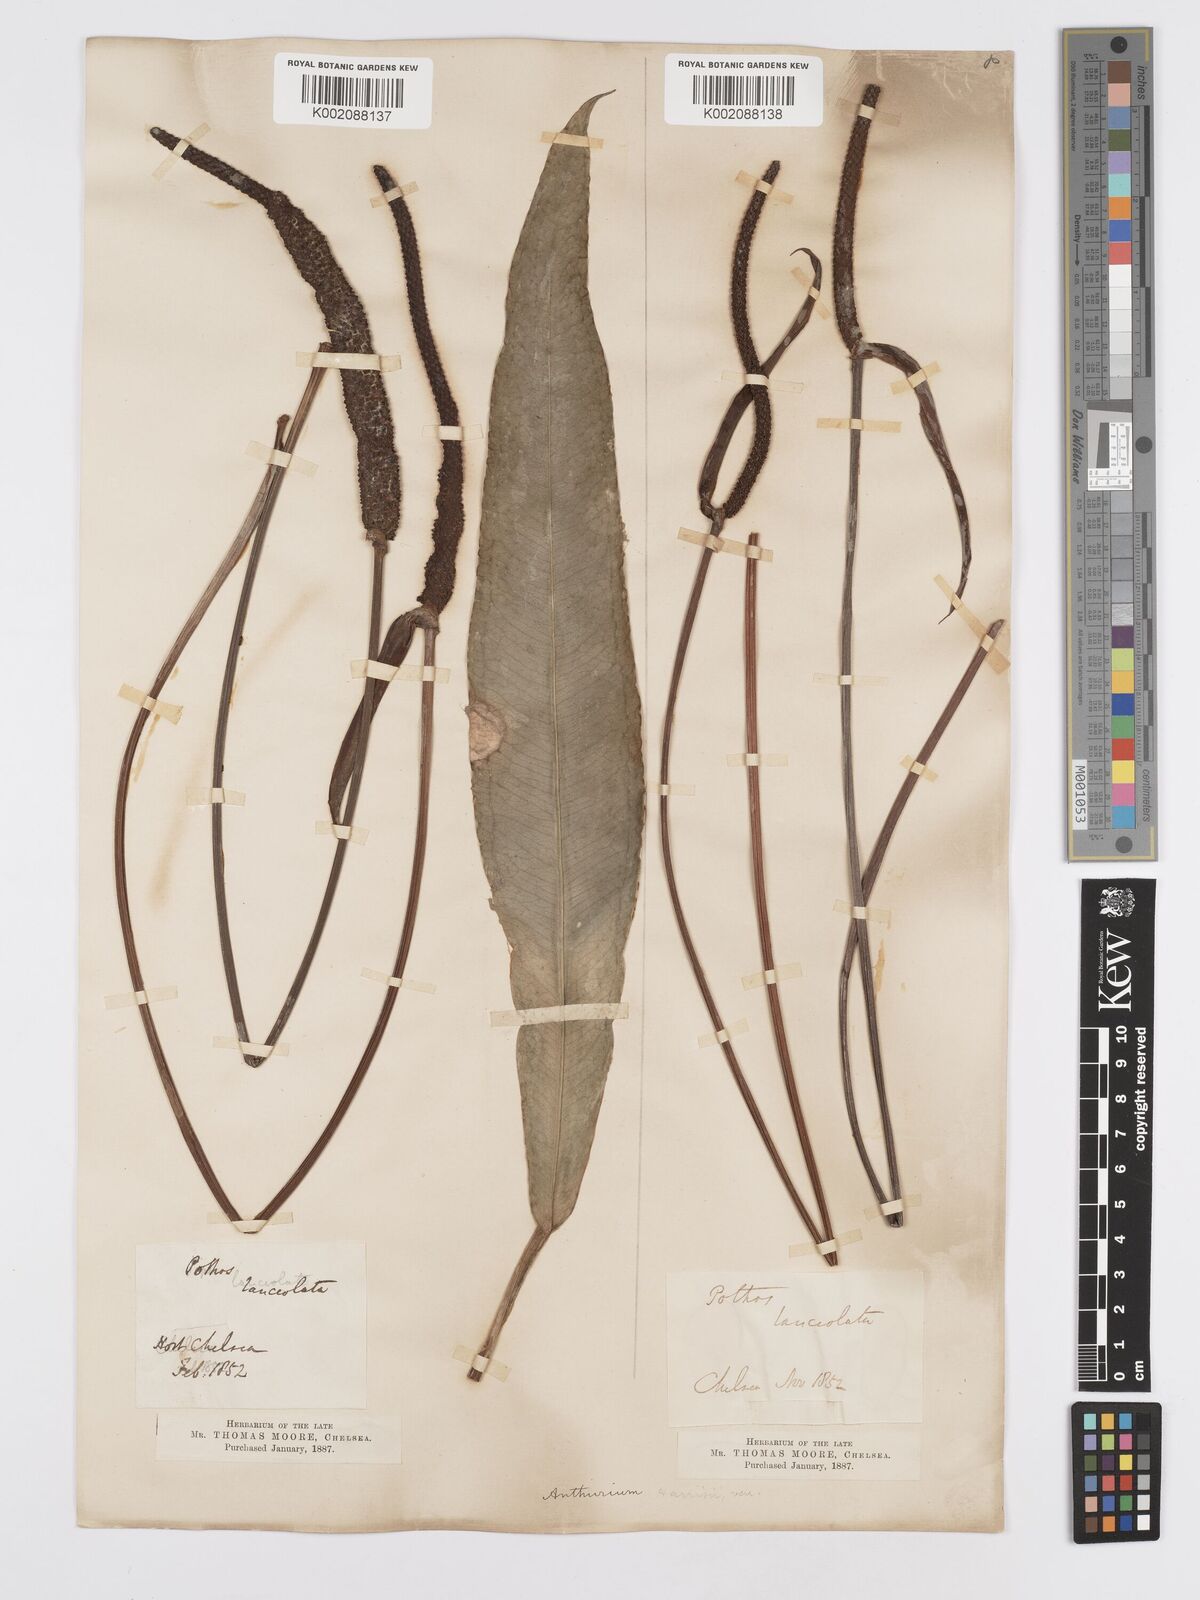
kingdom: Plantae
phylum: Tracheophyta
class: Liliopsida
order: Alismatales
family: Araceae
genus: Anthurium
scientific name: Anthurium
